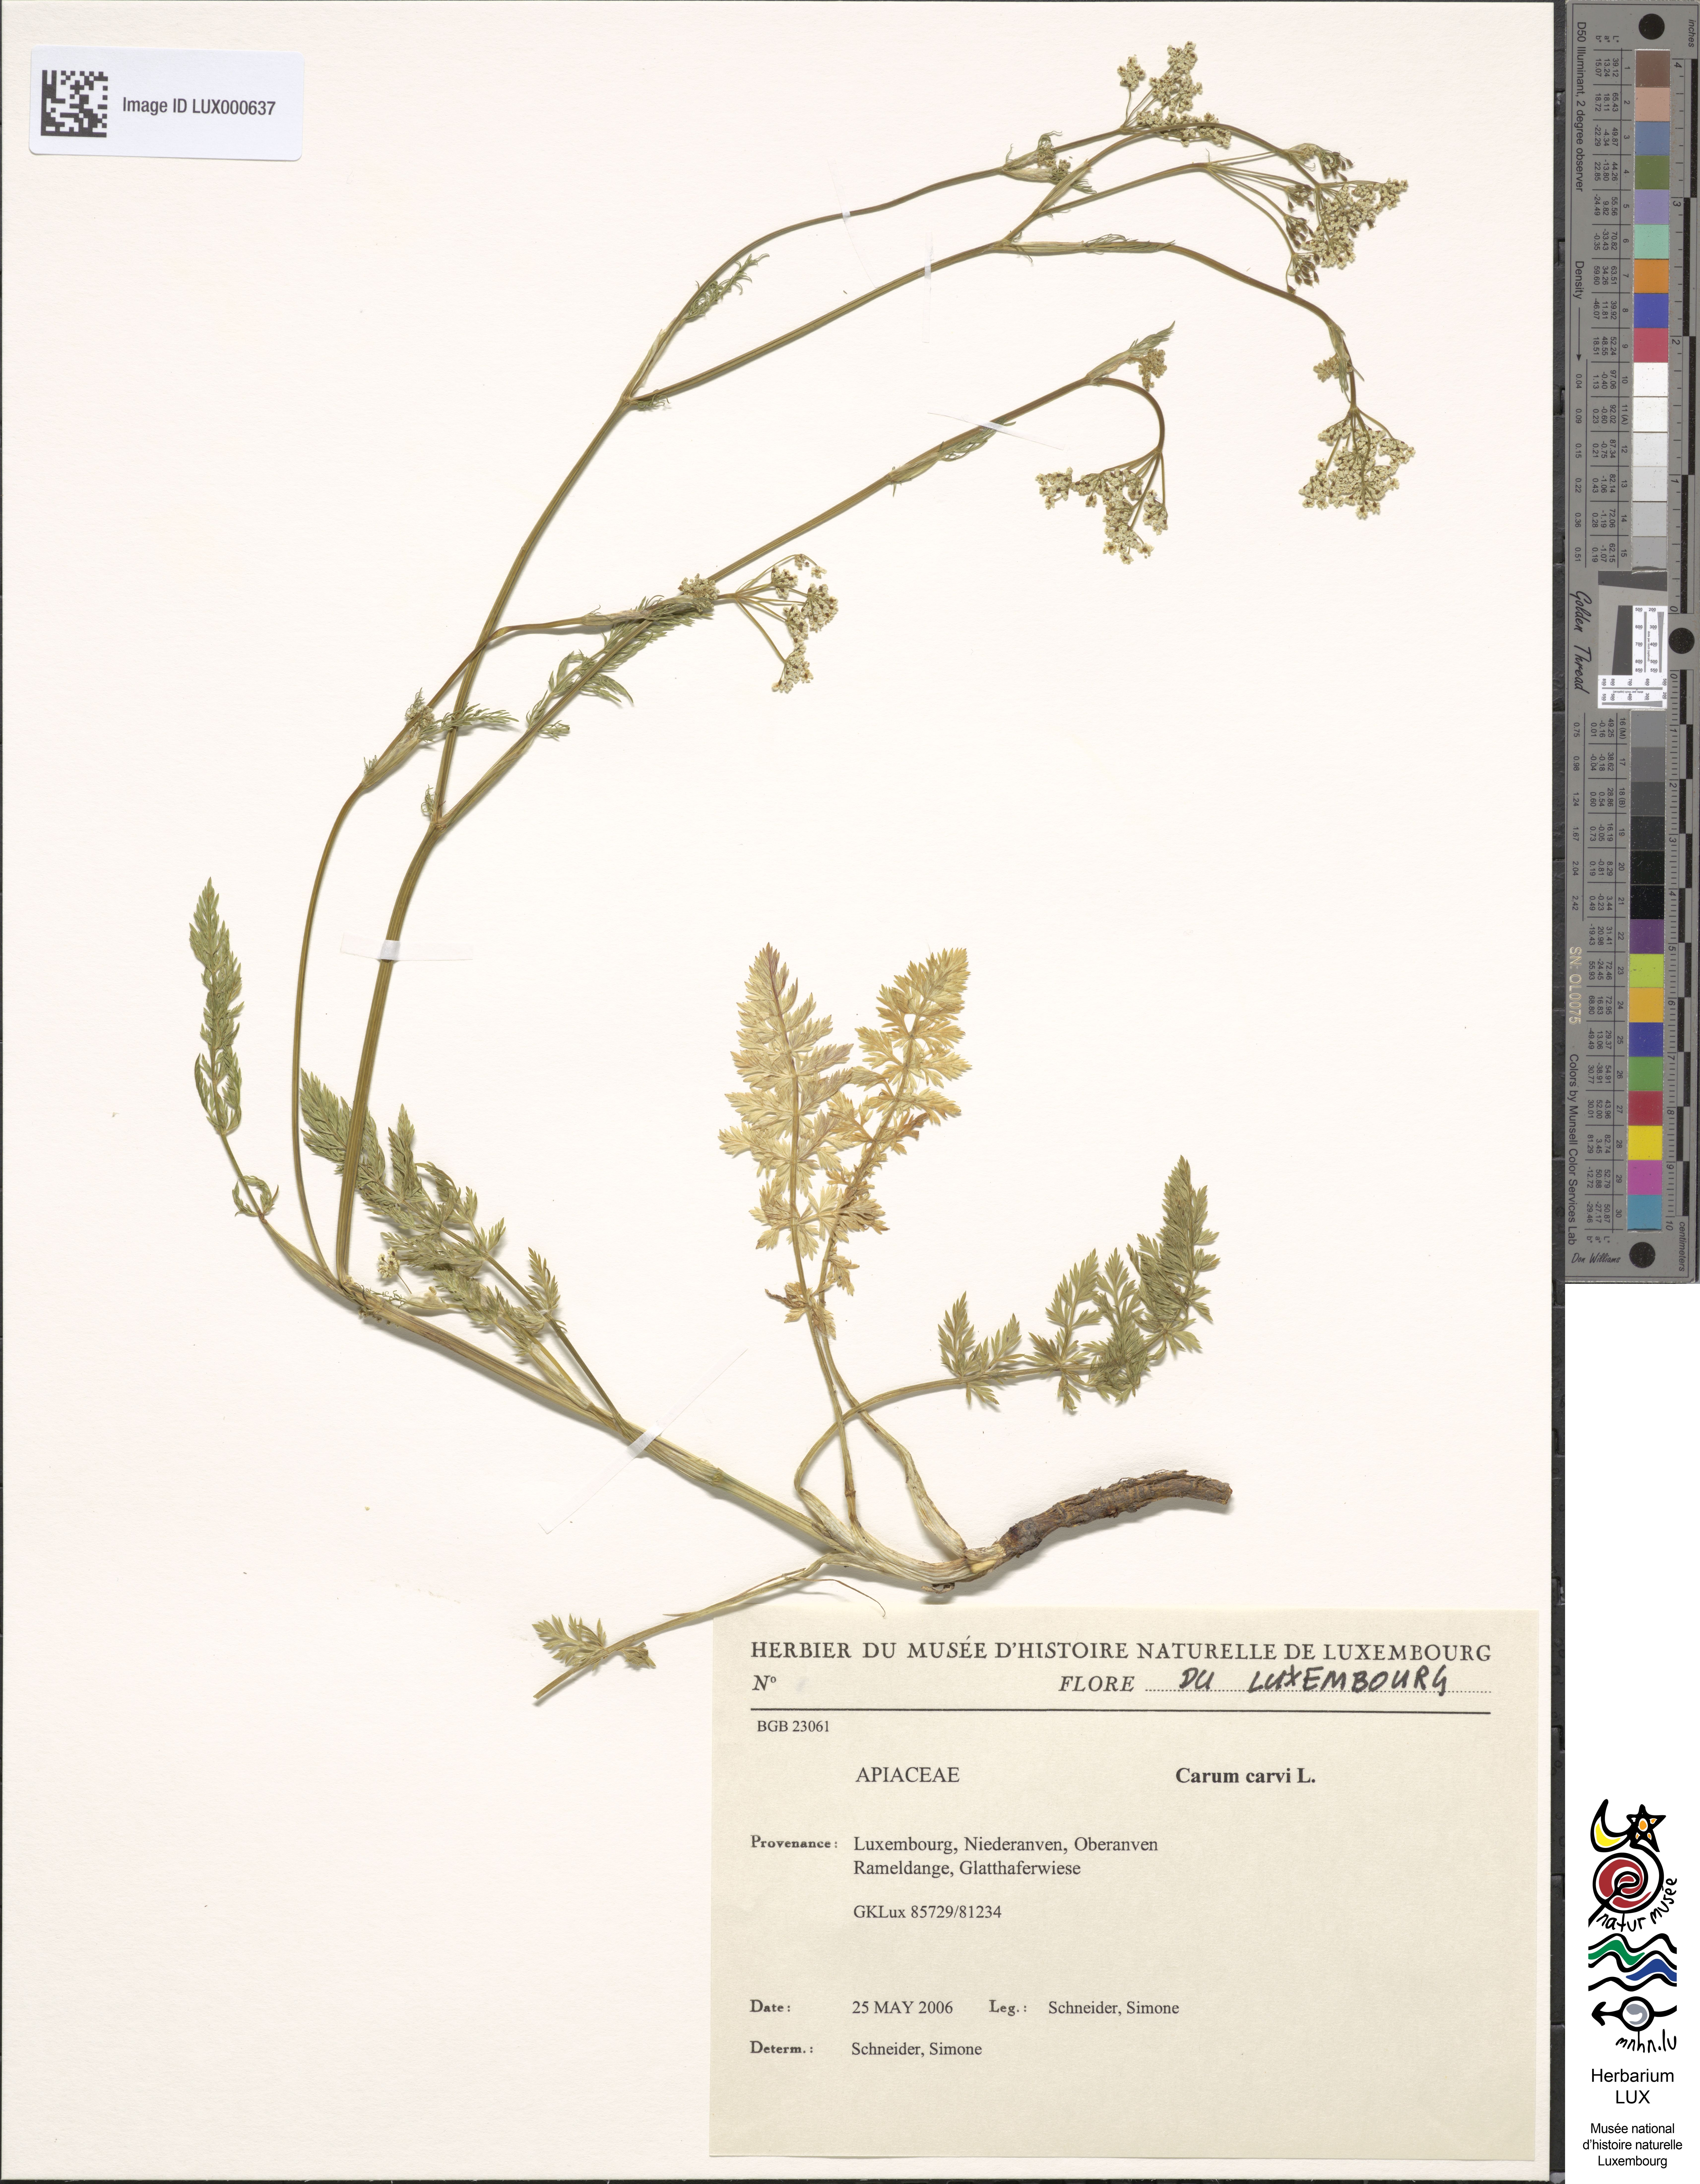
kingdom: Plantae
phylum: Tracheophyta
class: Magnoliopsida
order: Apiales
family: Apiaceae
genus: Carum
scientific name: Carum carvi
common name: Caraway
